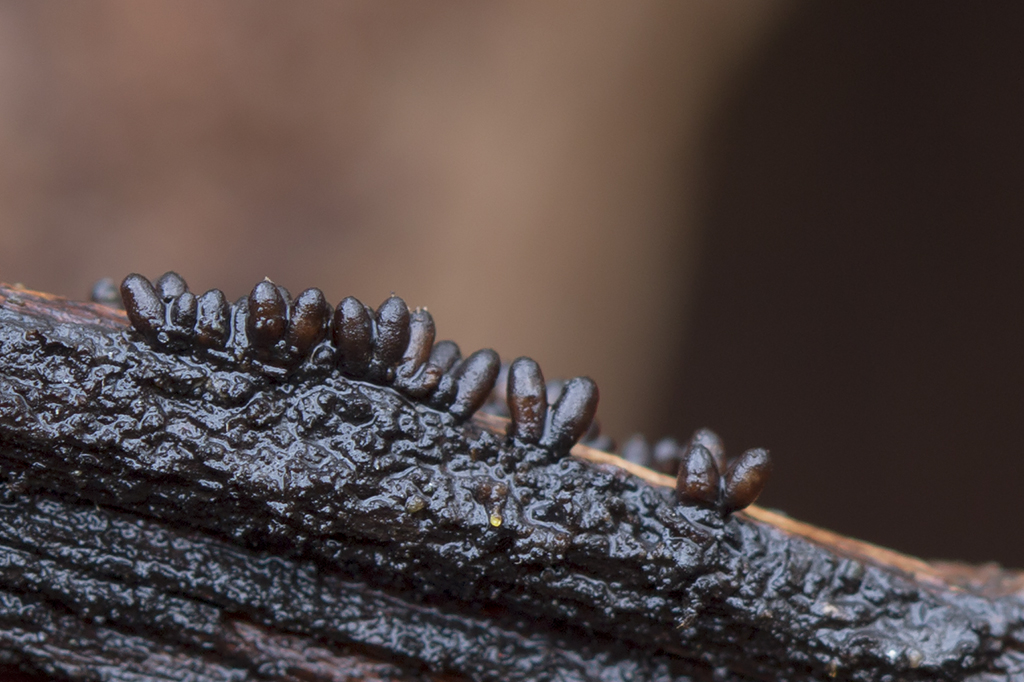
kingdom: Fungi
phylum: Ascomycota
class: Sordariomycetes
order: Sordariales
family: Bombardiaceae
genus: Bombardia
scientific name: Bombardia bombarda
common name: lædersæk-kernesvamp
